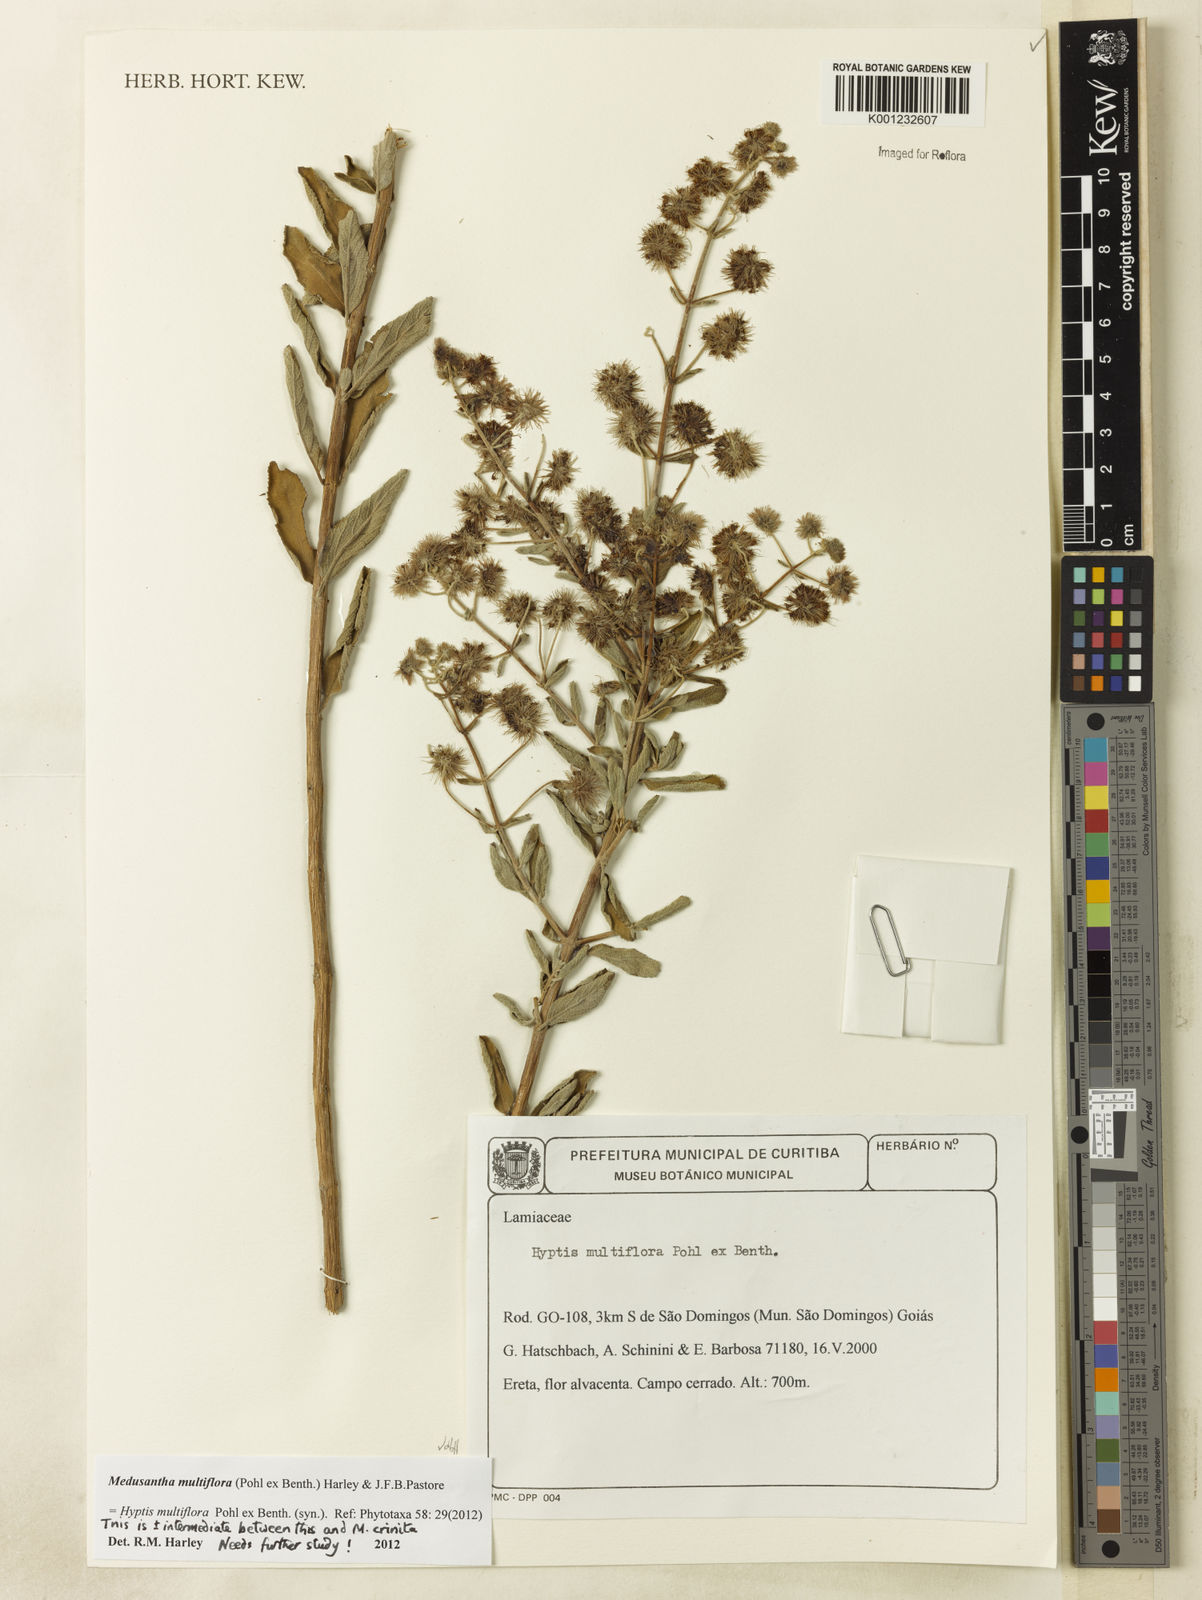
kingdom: Plantae
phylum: Tracheophyta
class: Magnoliopsida
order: Lamiales
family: Lamiaceae
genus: Medusantha
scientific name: Medusantha multiflora
